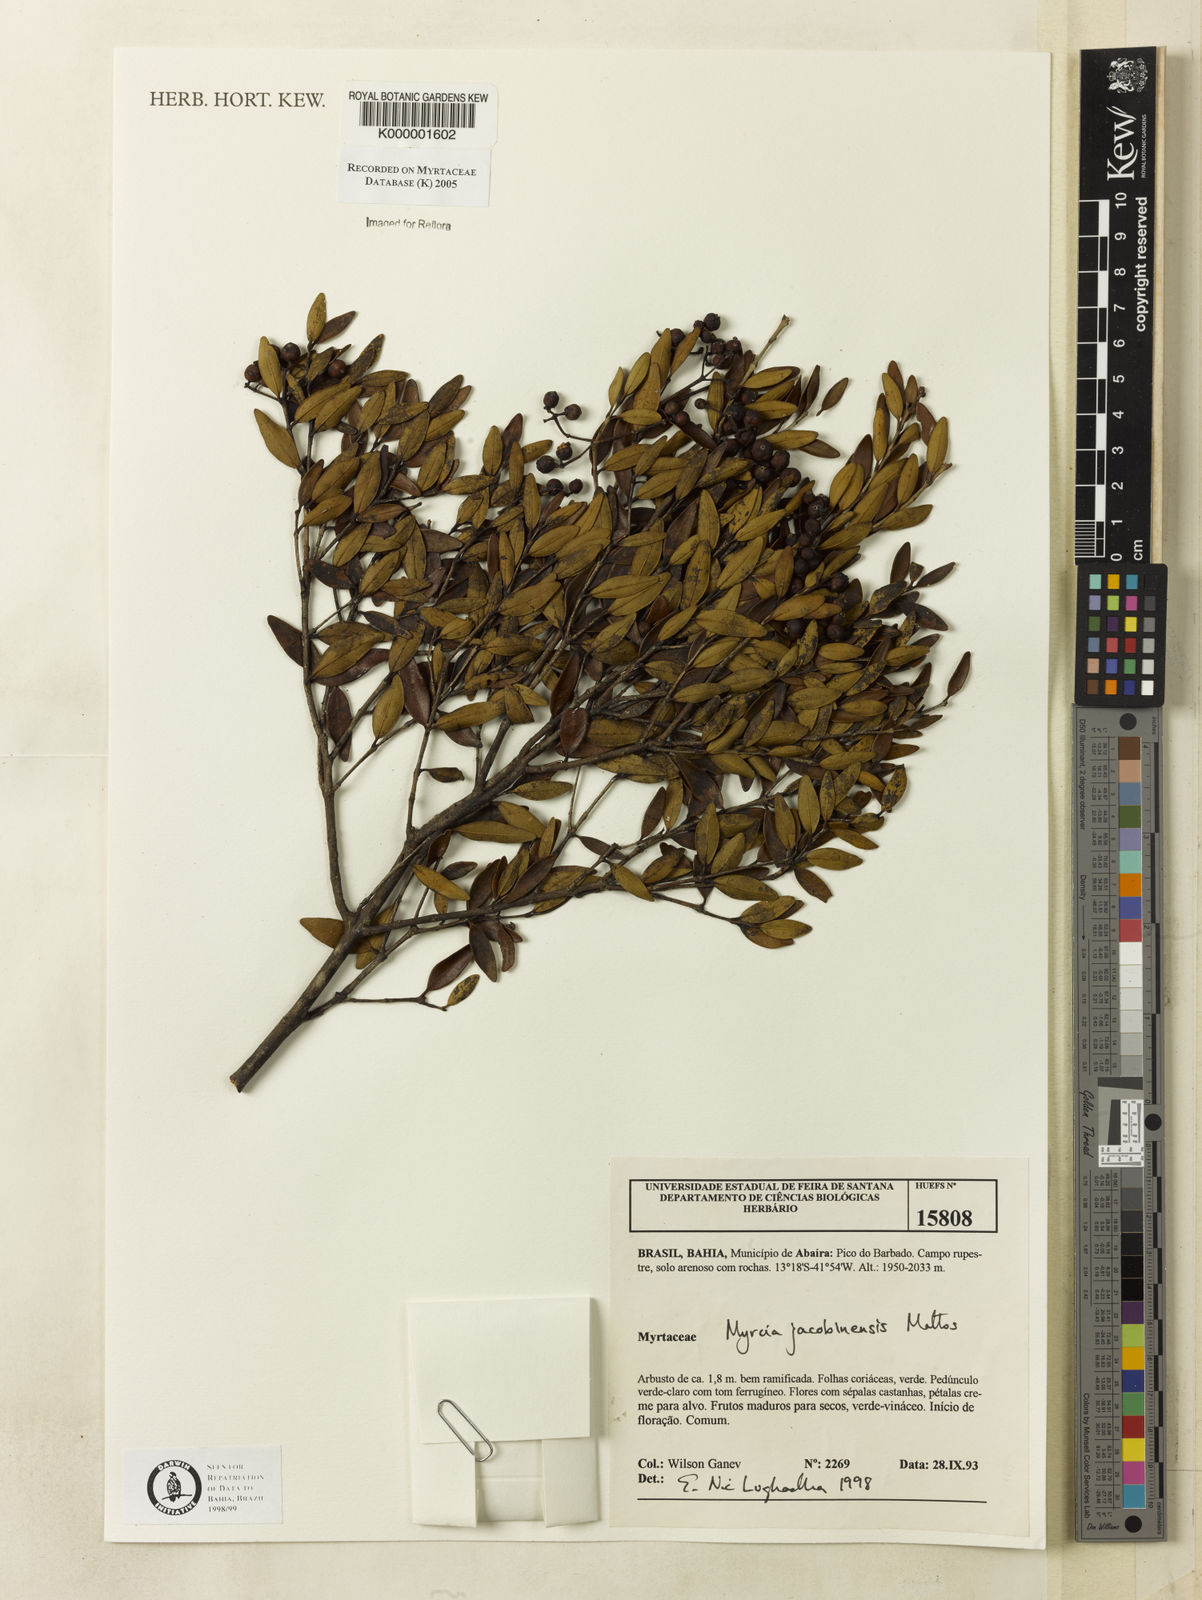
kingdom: Plantae
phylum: Tracheophyta
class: Magnoliopsida
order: Myrtales
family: Myrtaceae
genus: Myrcia
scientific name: Myrcia jacobinensis
